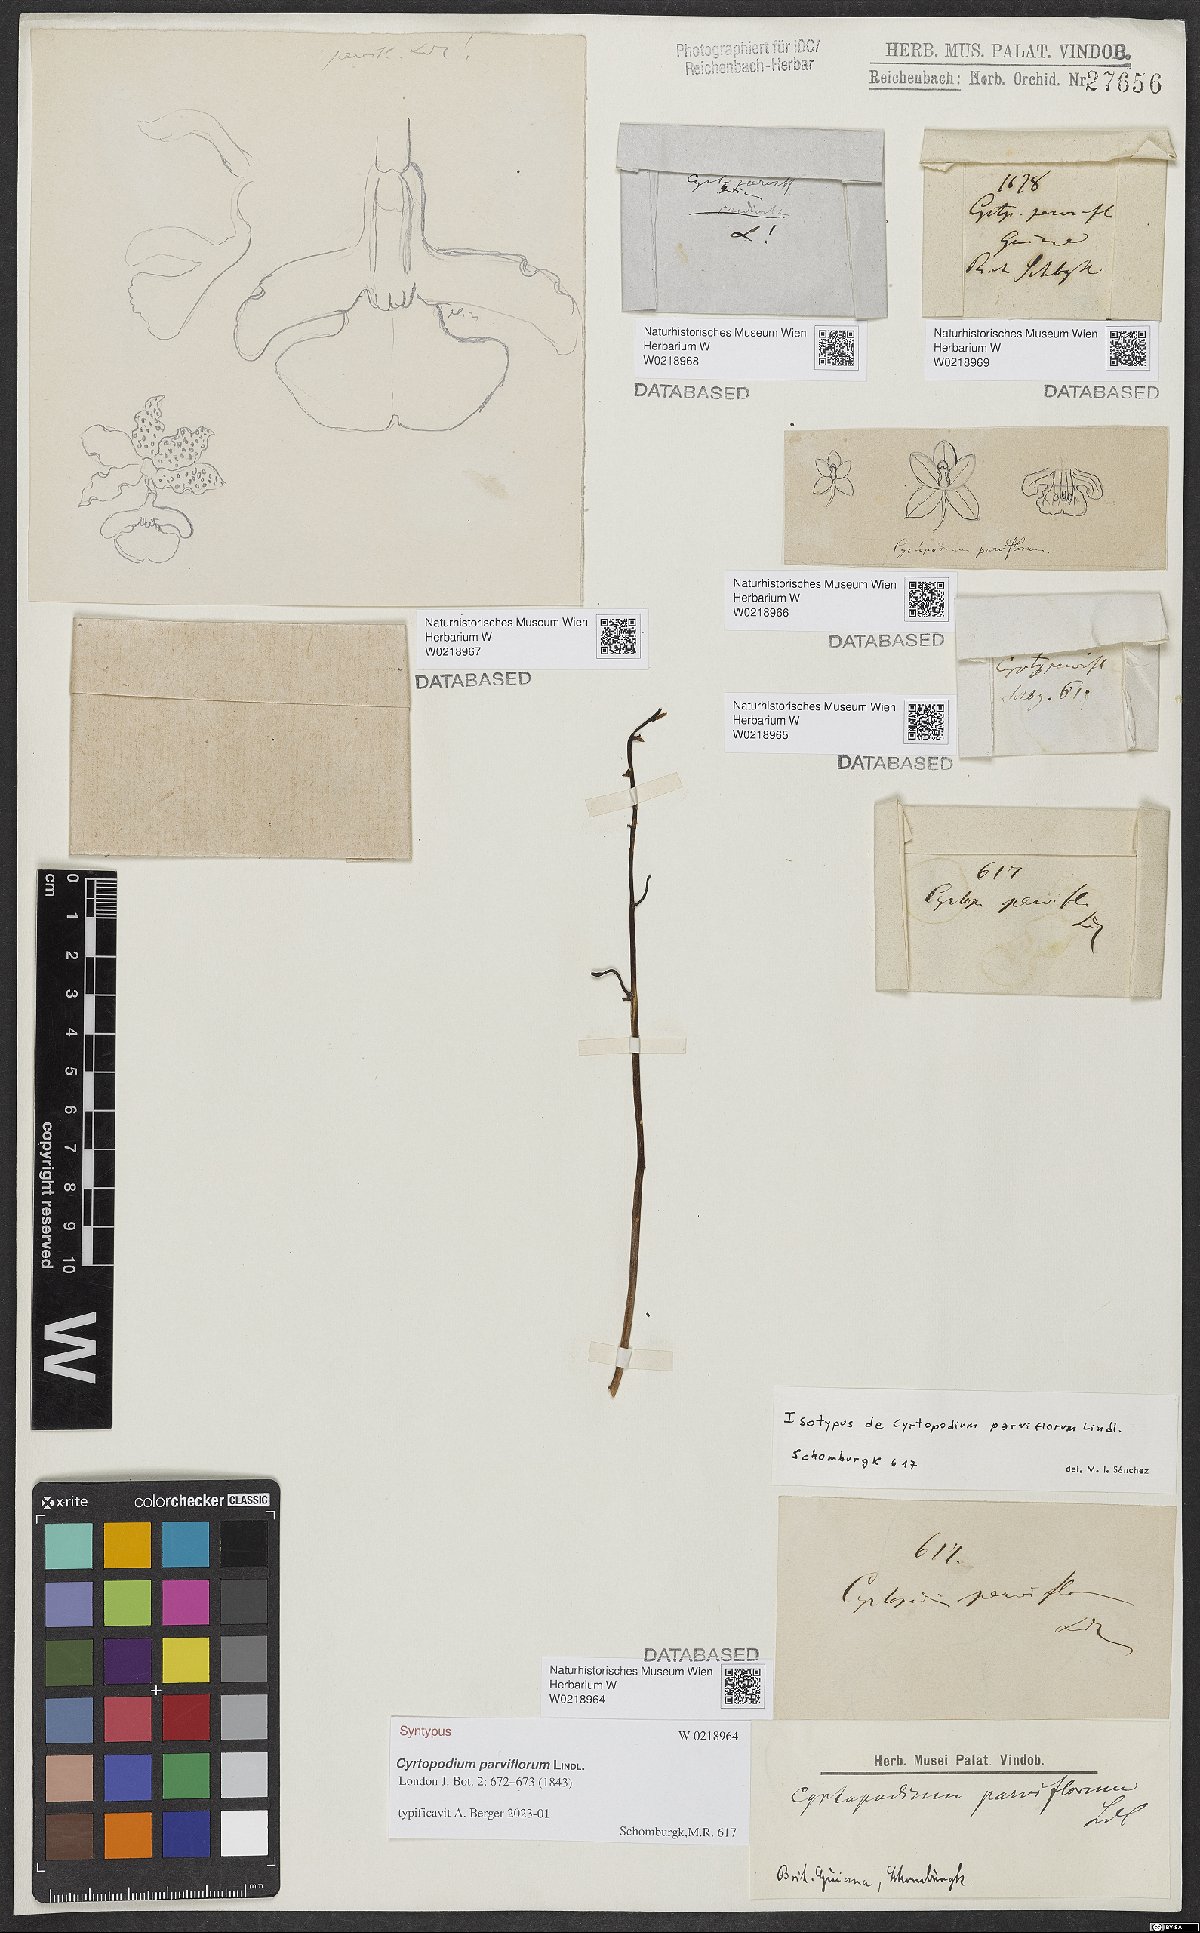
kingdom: Plantae
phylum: Tracheophyta
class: Liliopsida
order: Asparagales
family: Orchidaceae
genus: Cyrtopodium
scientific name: Cyrtopodium parviflorum
